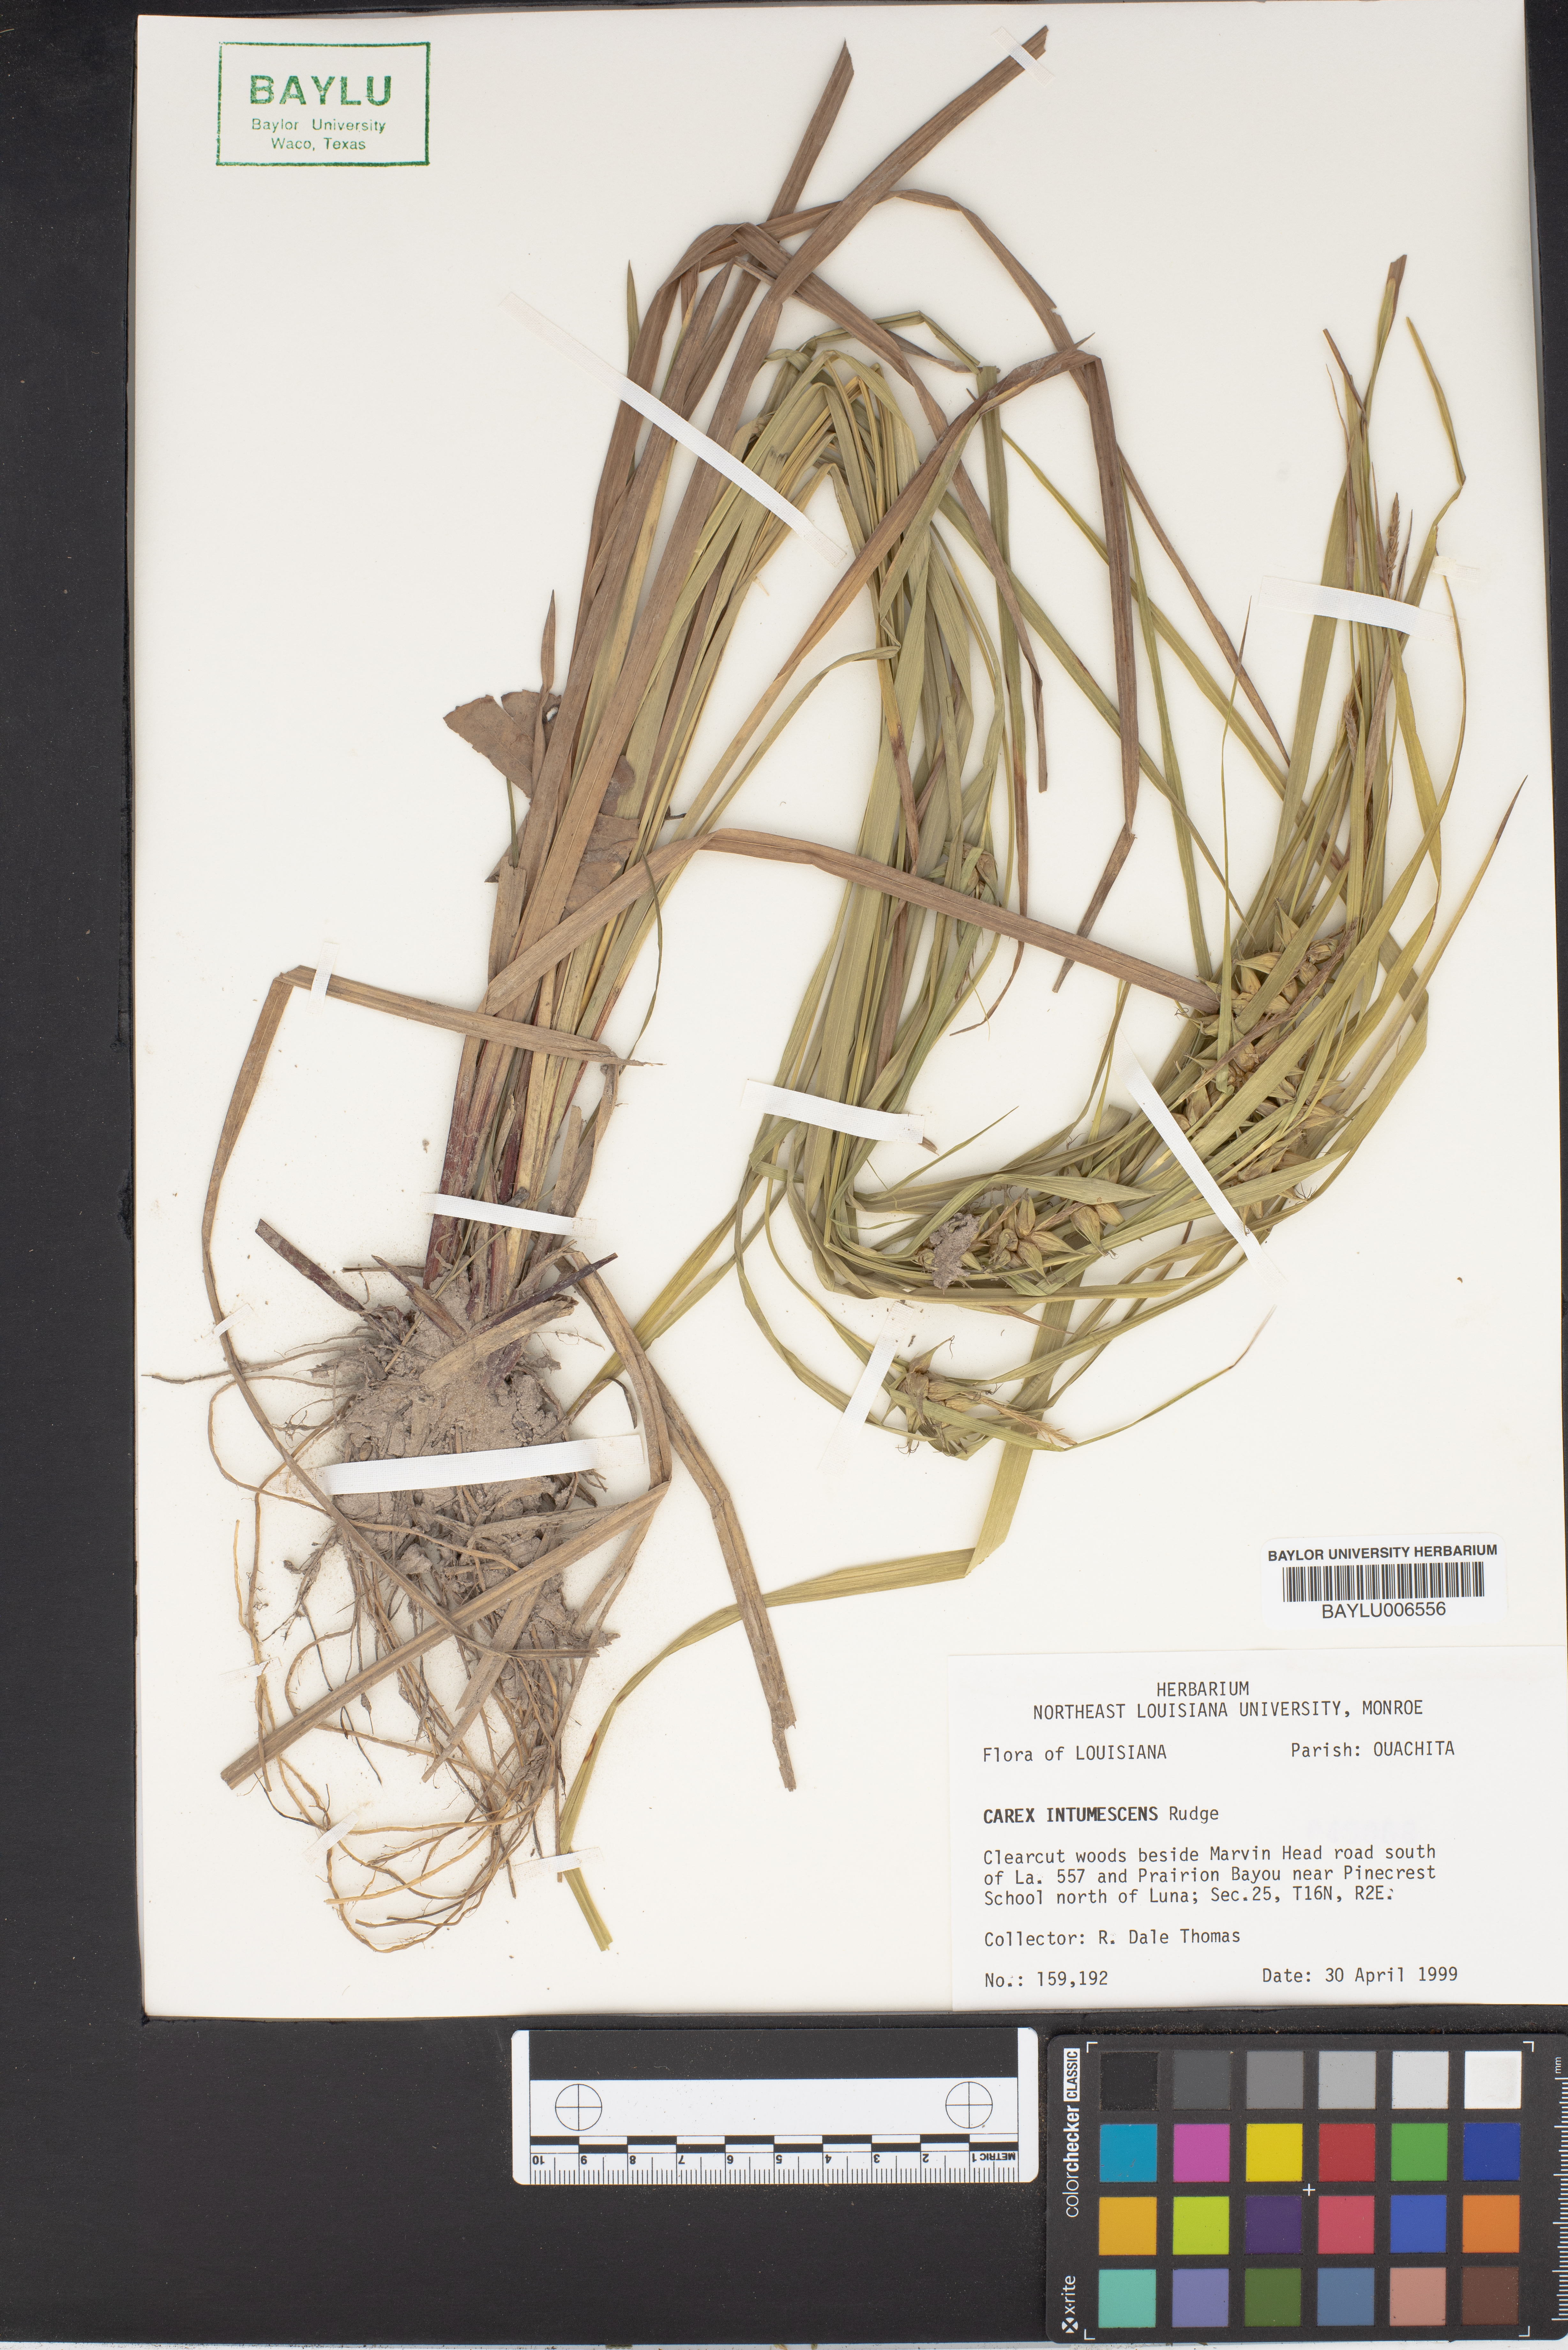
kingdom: Plantae
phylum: Tracheophyta
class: Liliopsida
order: Poales
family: Cyperaceae
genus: Carex
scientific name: Carex intumescens
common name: Greater bladder sedge
